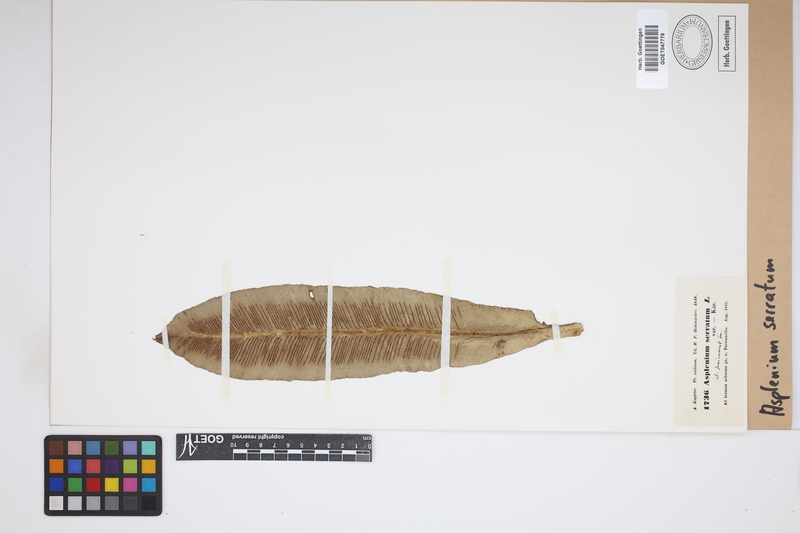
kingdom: Plantae
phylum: Tracheophyta
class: Polypodiopsida
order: Polypodiales
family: Aspleniaceae
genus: Asplenium
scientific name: Asplenium serratum
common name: Wild birdnest fern
